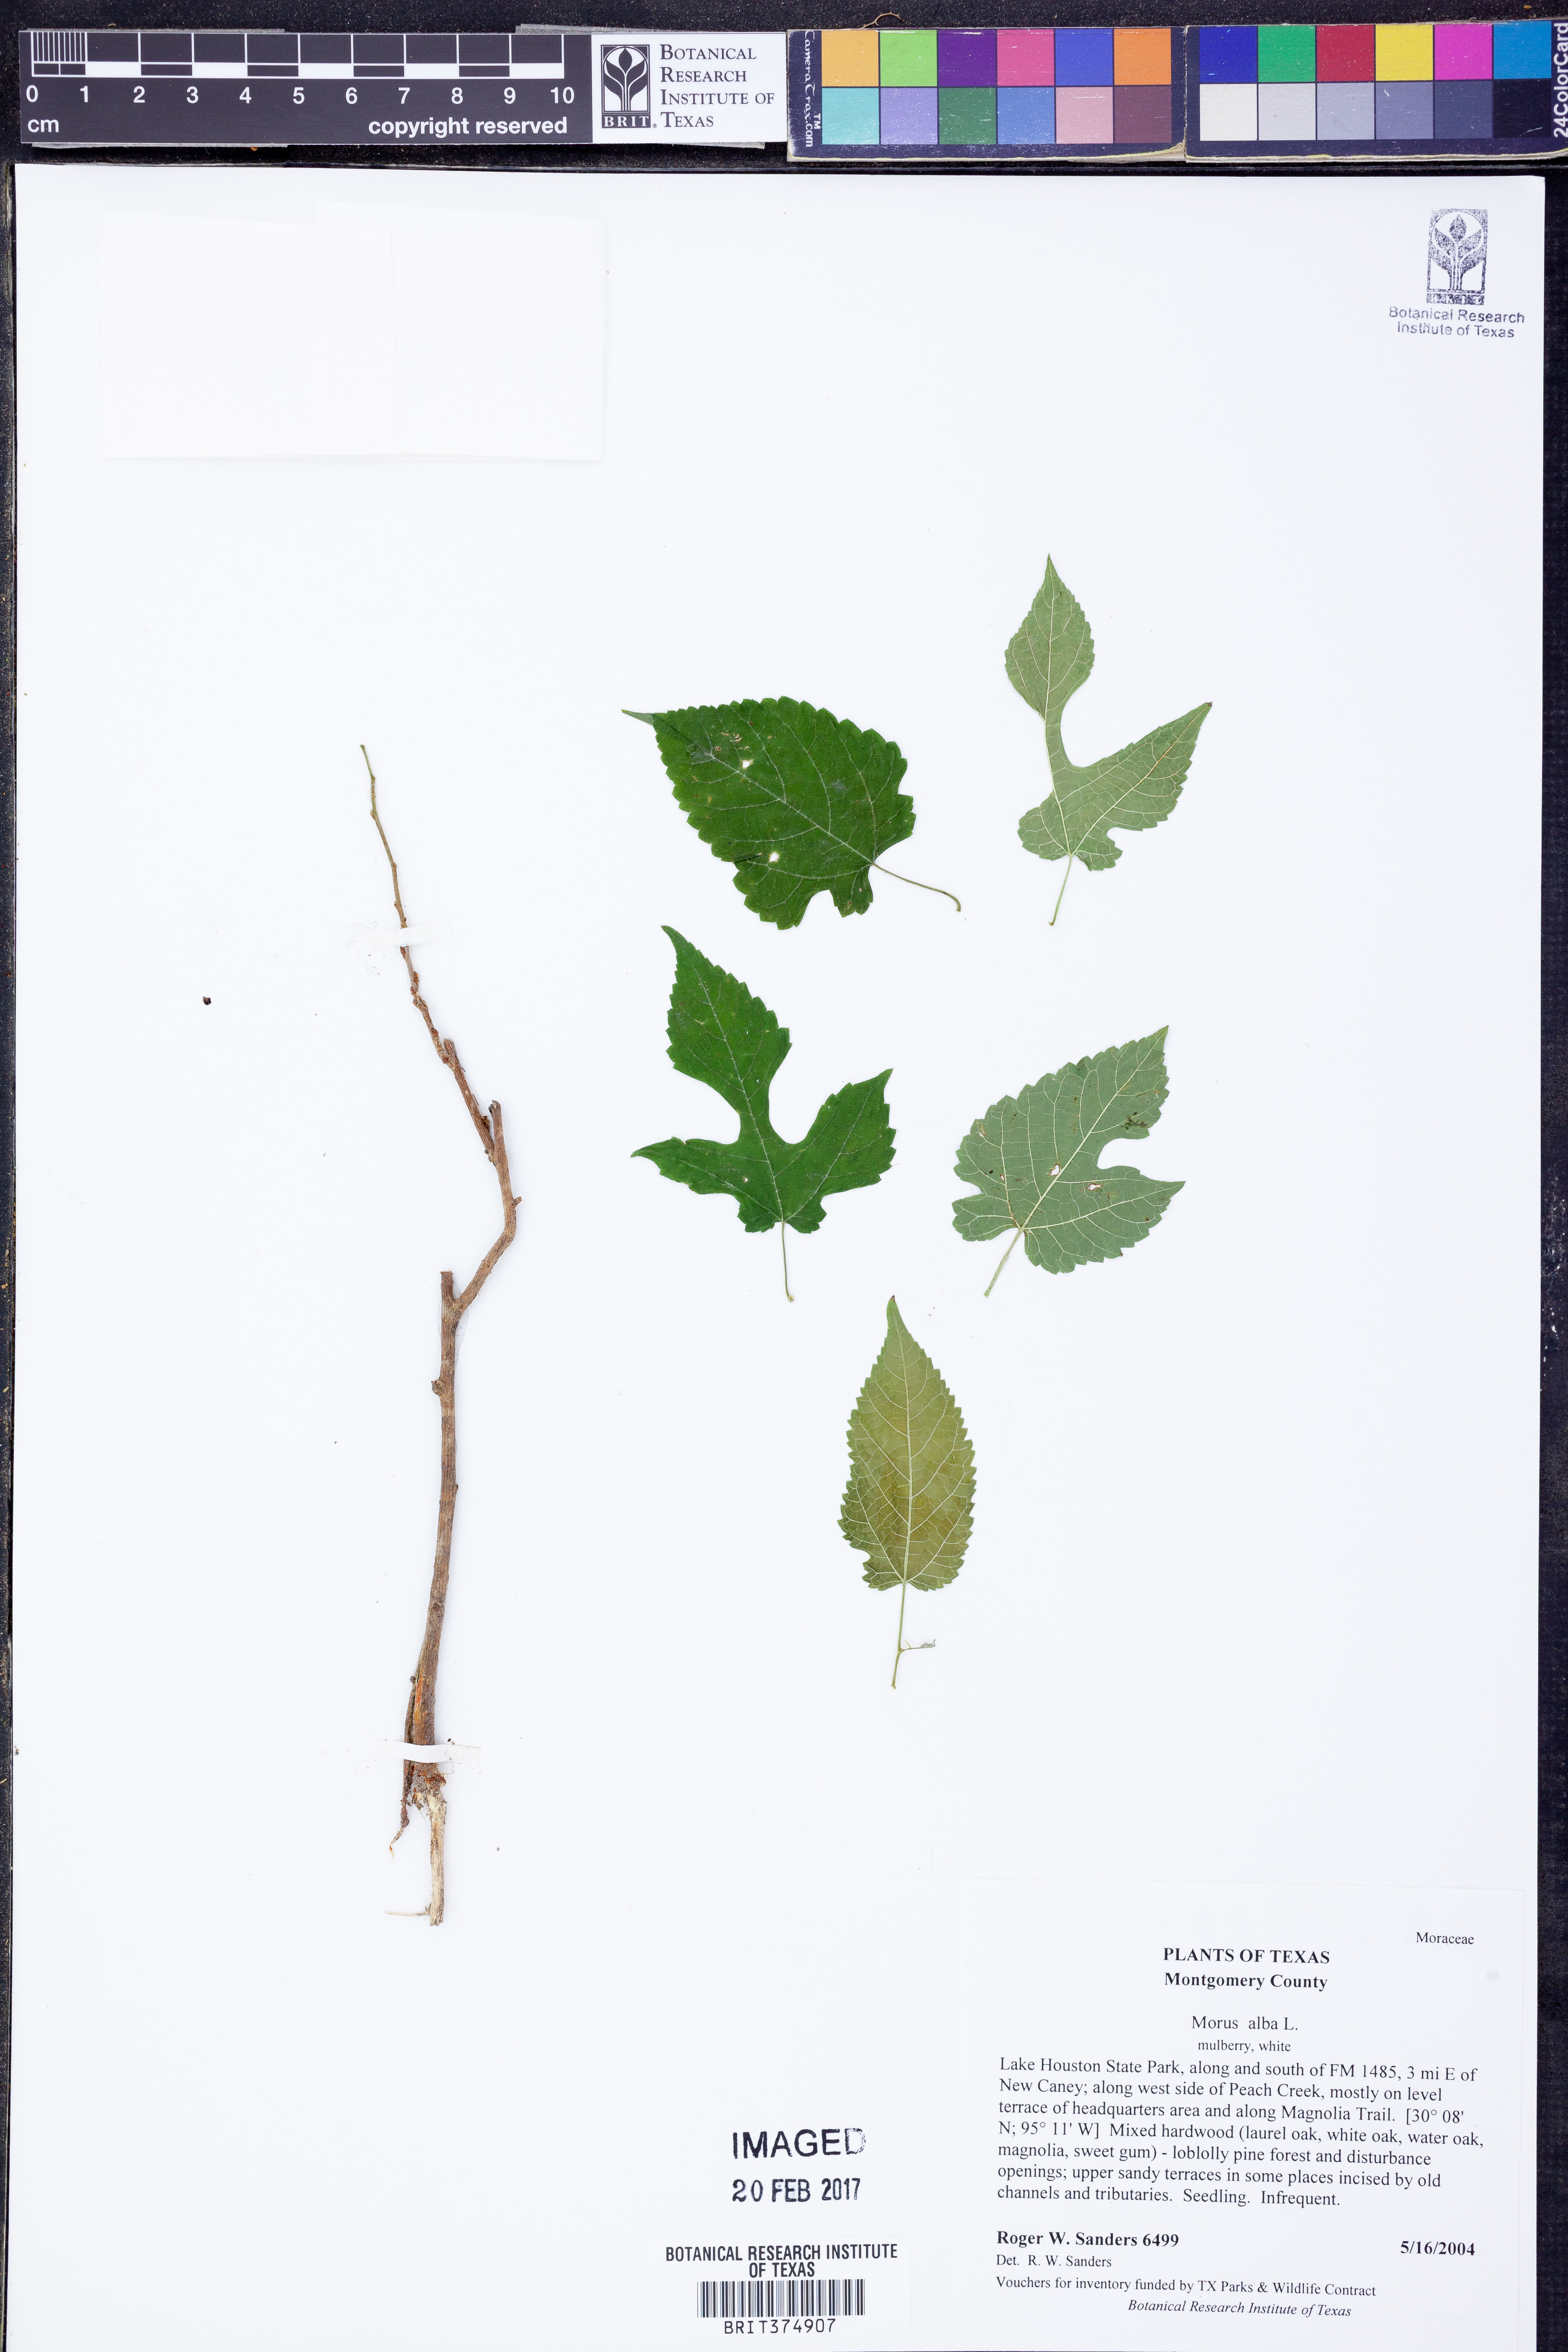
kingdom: Plantae
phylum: Tracheophyta
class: Magnoliopsida
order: Rosales
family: Moraceae
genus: Morus
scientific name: Morus alba
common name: White mulberry
